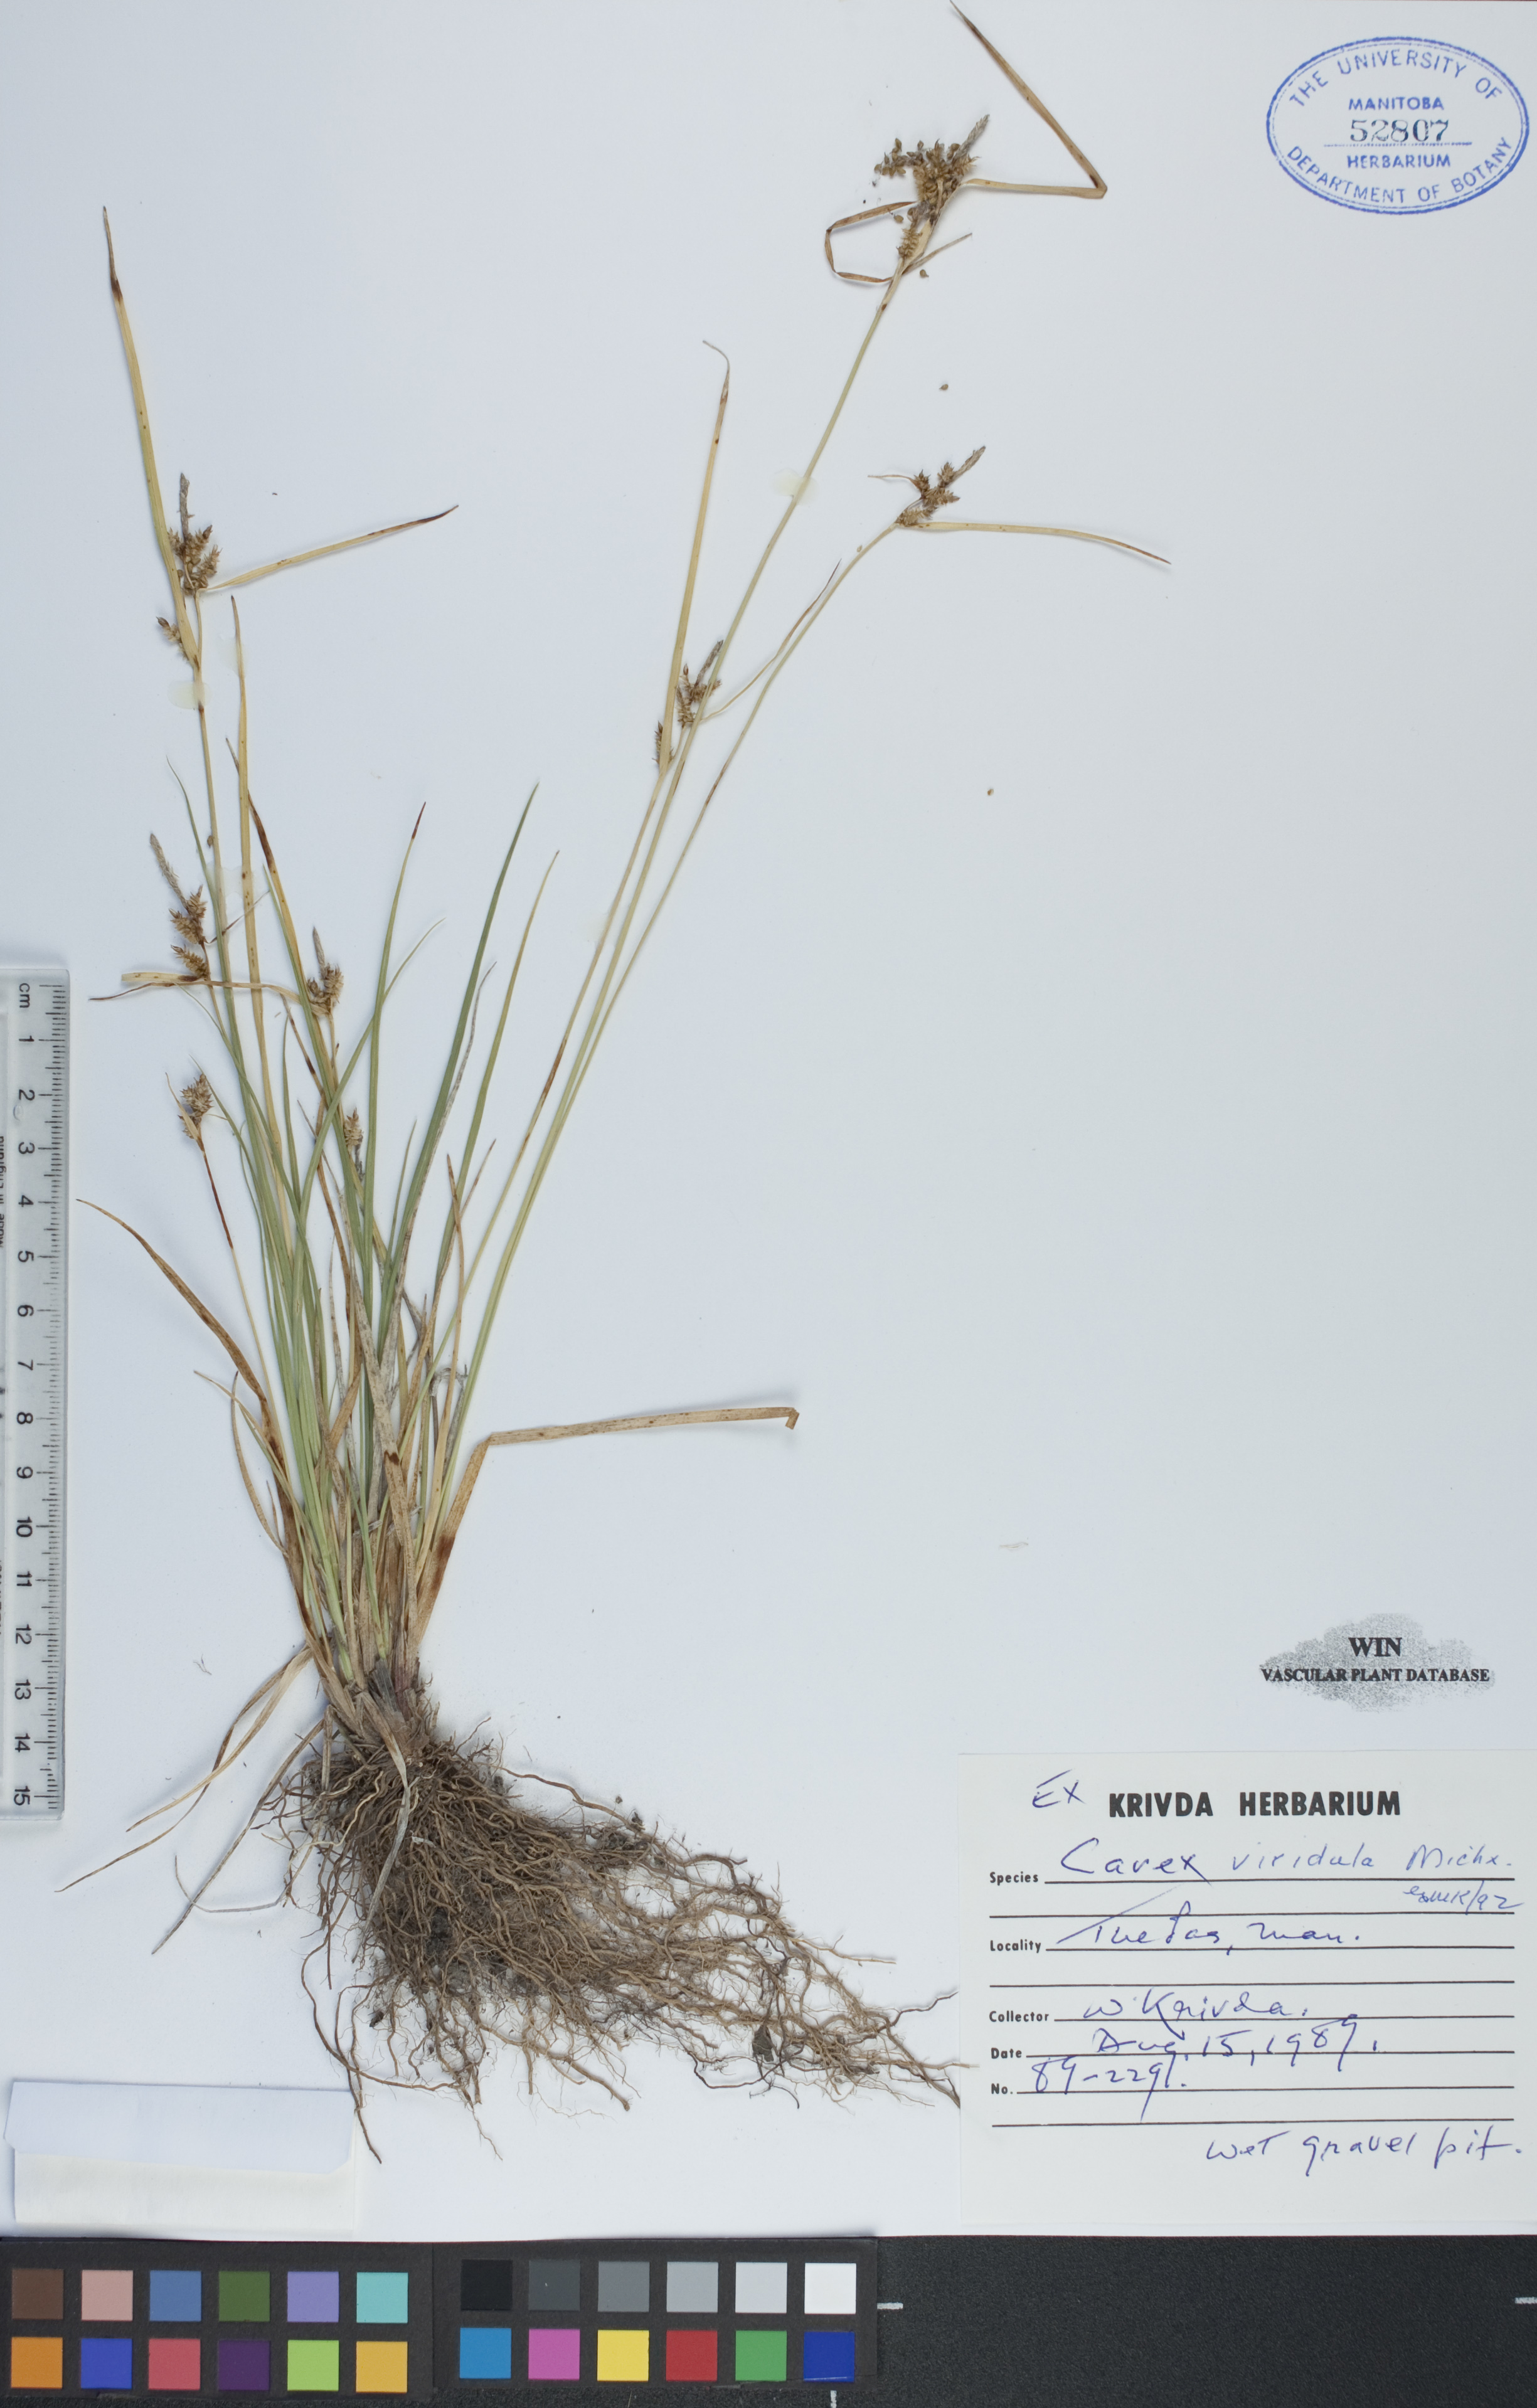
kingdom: Plantae
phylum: Tracheophyta
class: Liliopsida
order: Poales
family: Cyperaceae
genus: Carex
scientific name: Carex oederi
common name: Common & small-fruited yellow-sedge
